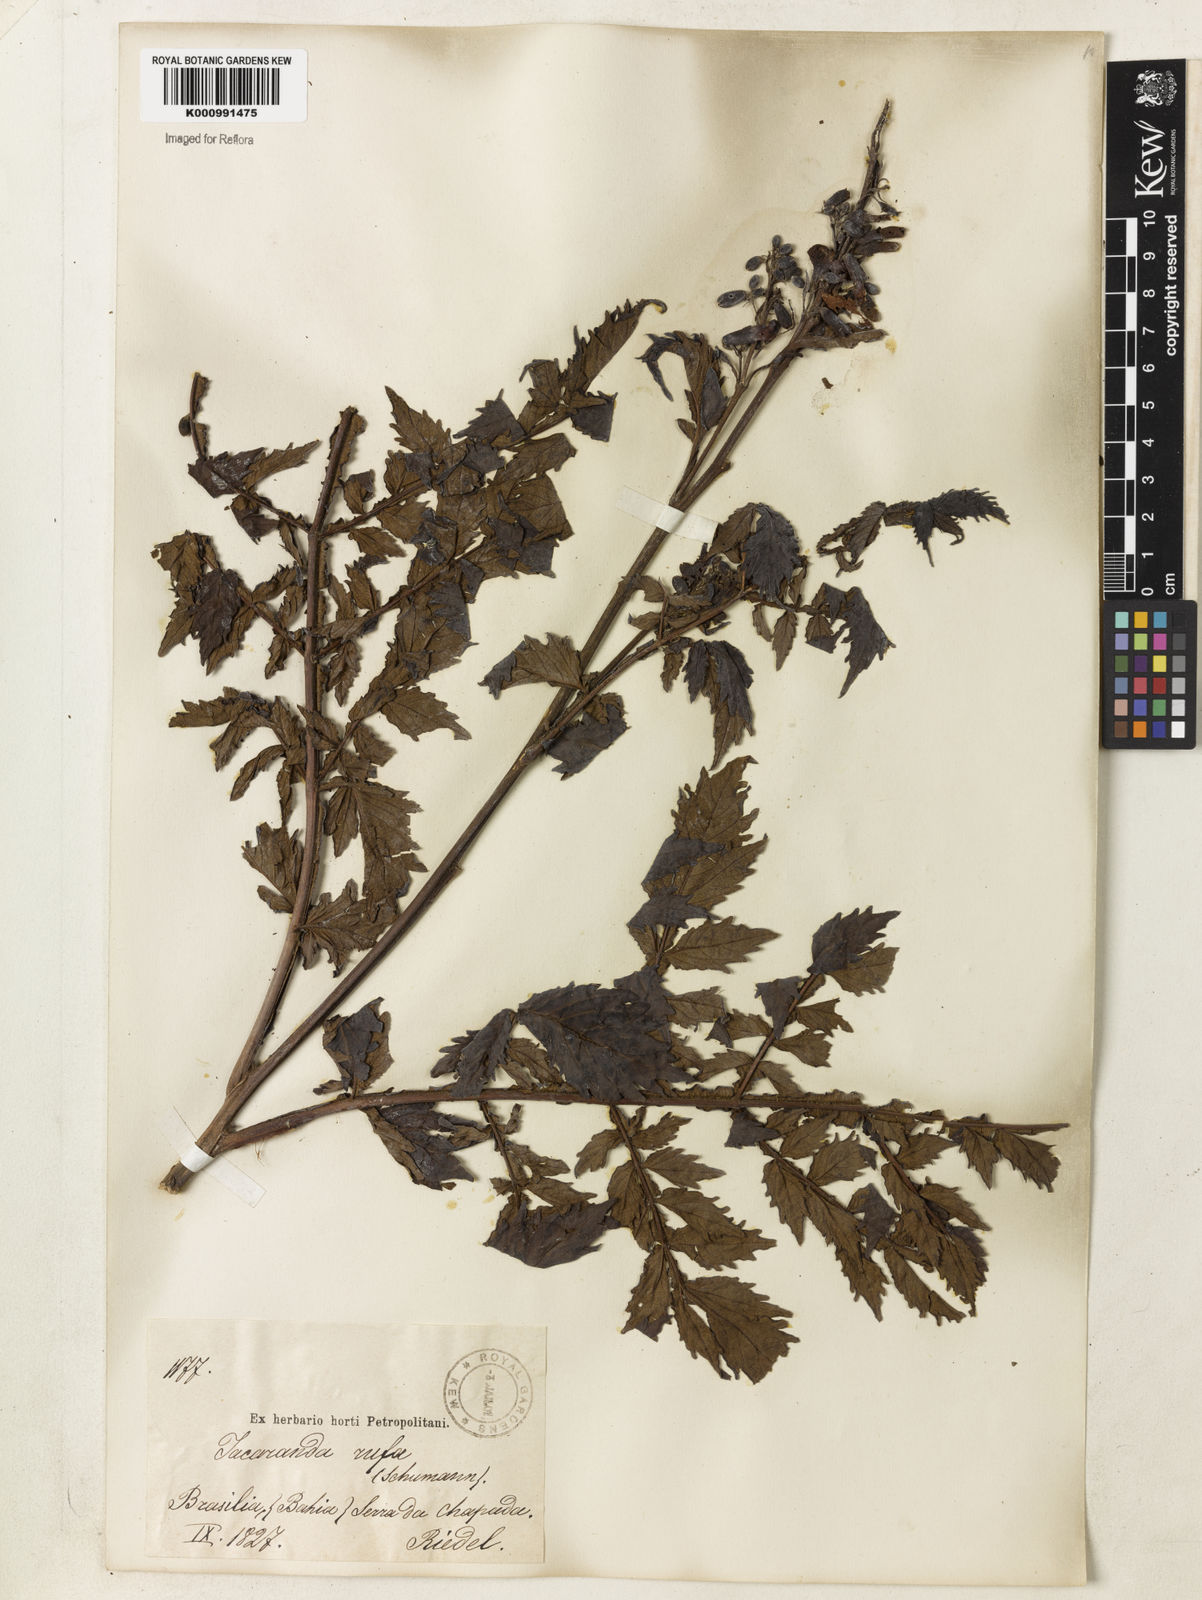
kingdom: Plantae
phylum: Tracheophyta
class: Magnoliopsida
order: Lamiales
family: Bignoniaceae
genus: Jacaranda
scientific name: Jacaranda rufa
